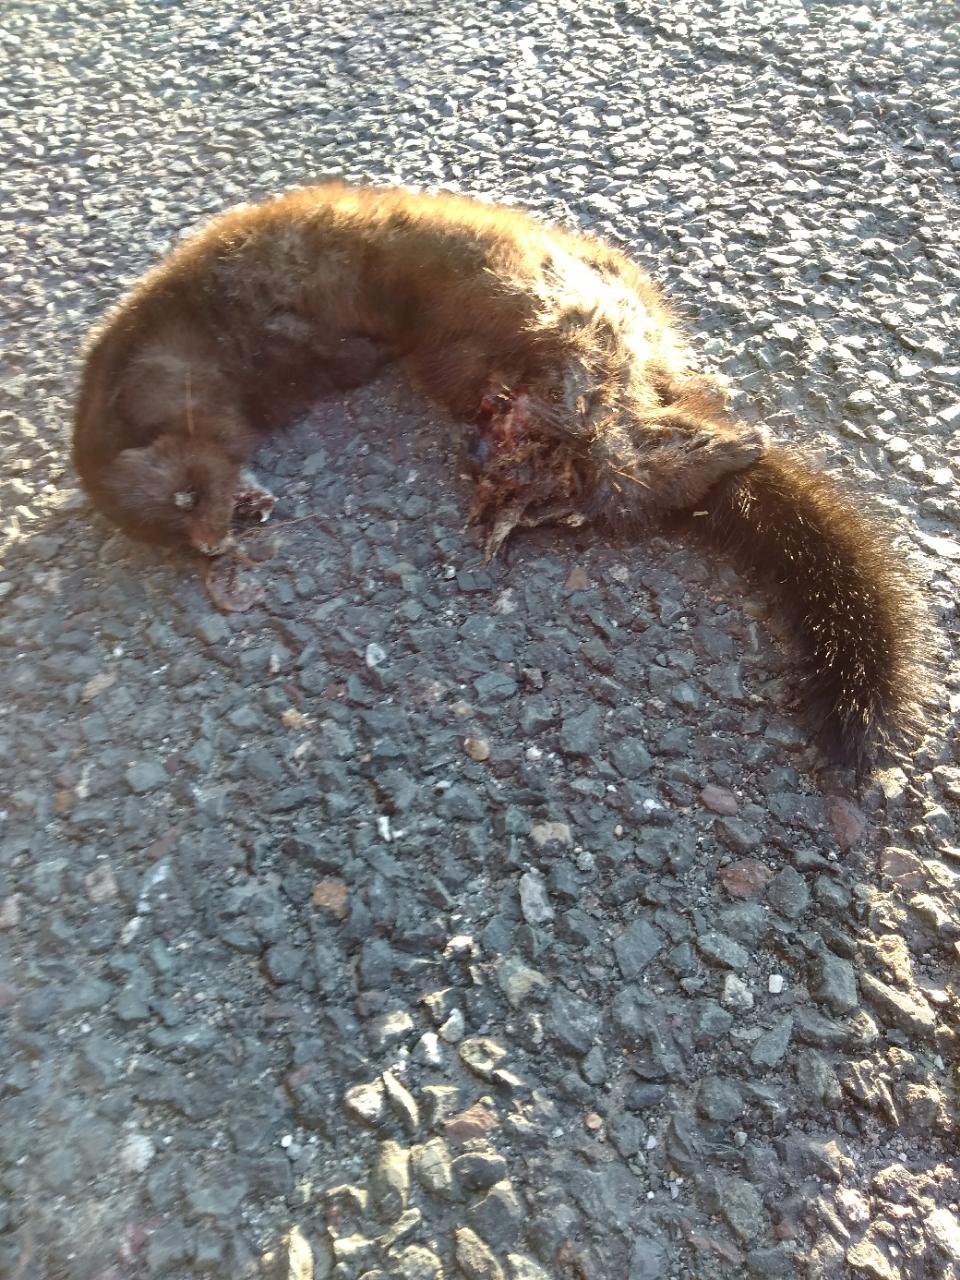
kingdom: Animalia
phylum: Chordata
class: Mammalia
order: Carnivora
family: Mustelidae
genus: Mustela
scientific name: Mustela vison
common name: American mink
